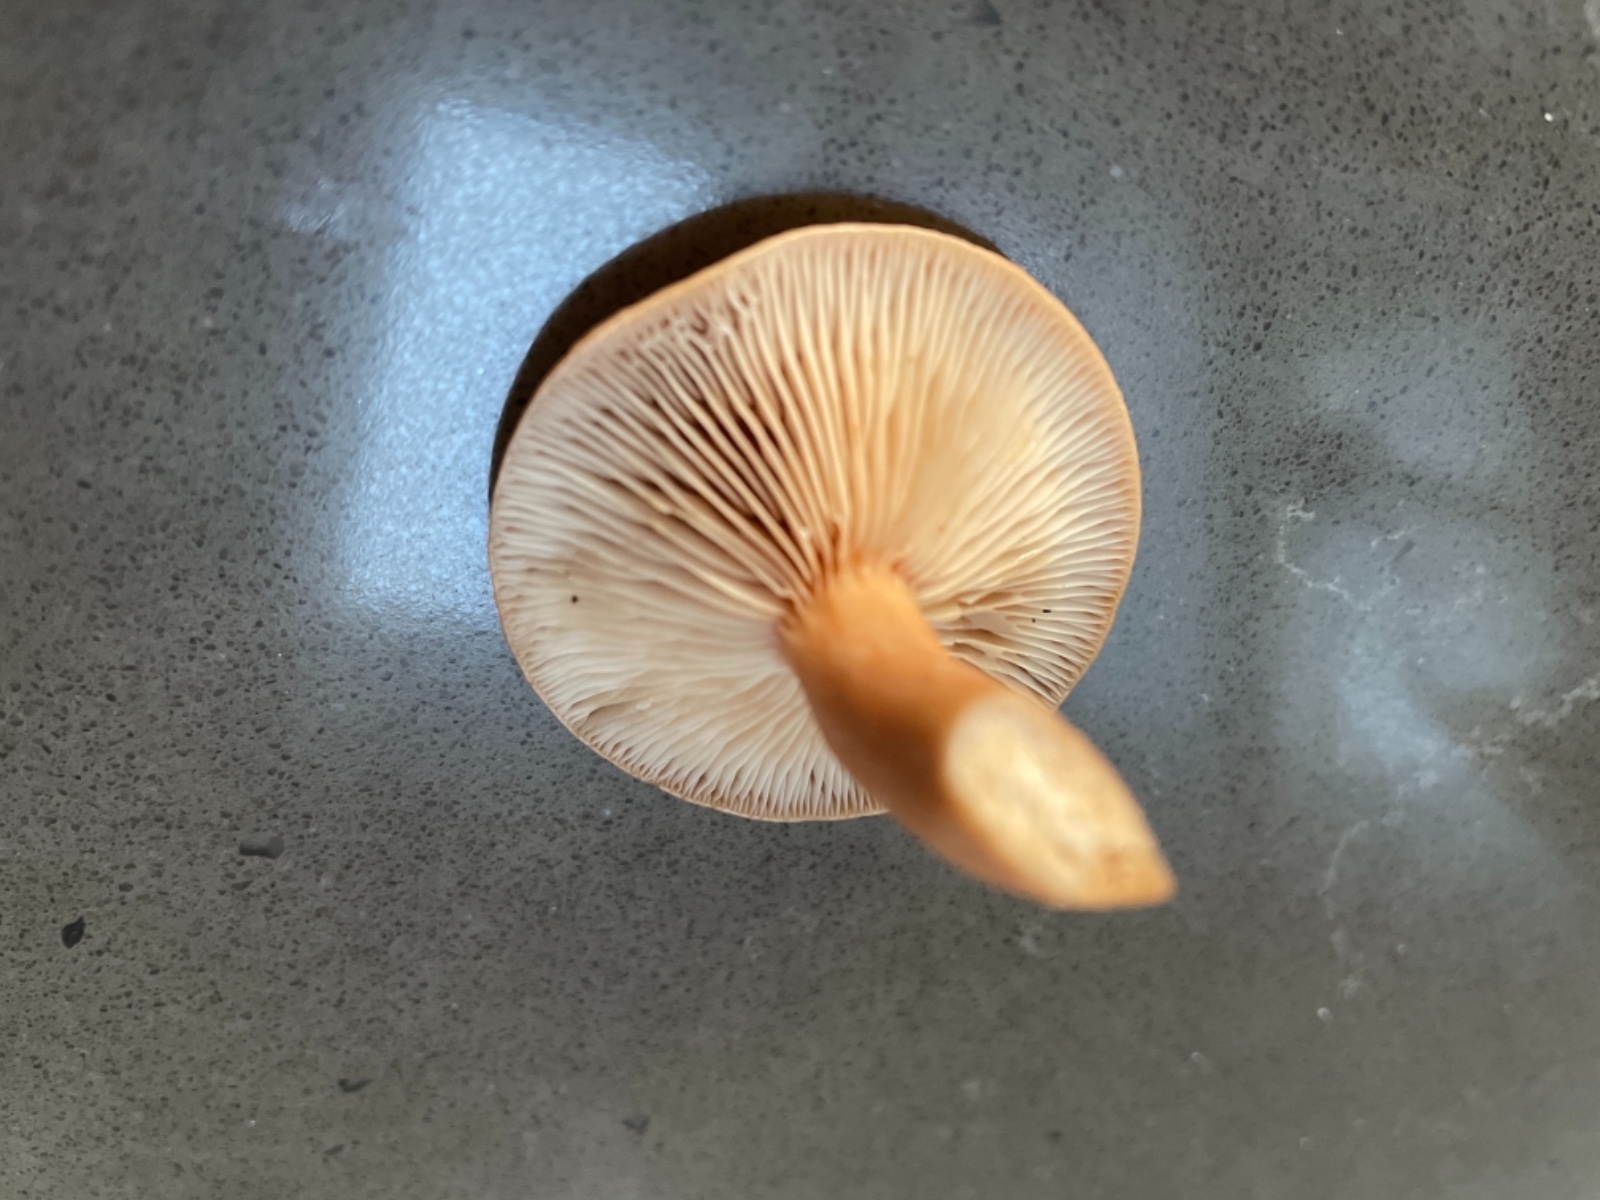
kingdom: Fungi
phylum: Basidiomycota
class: Agaricomycetes
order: Russulales
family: Russulaceae
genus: Lactarius
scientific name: Lactarius
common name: mælkehat
